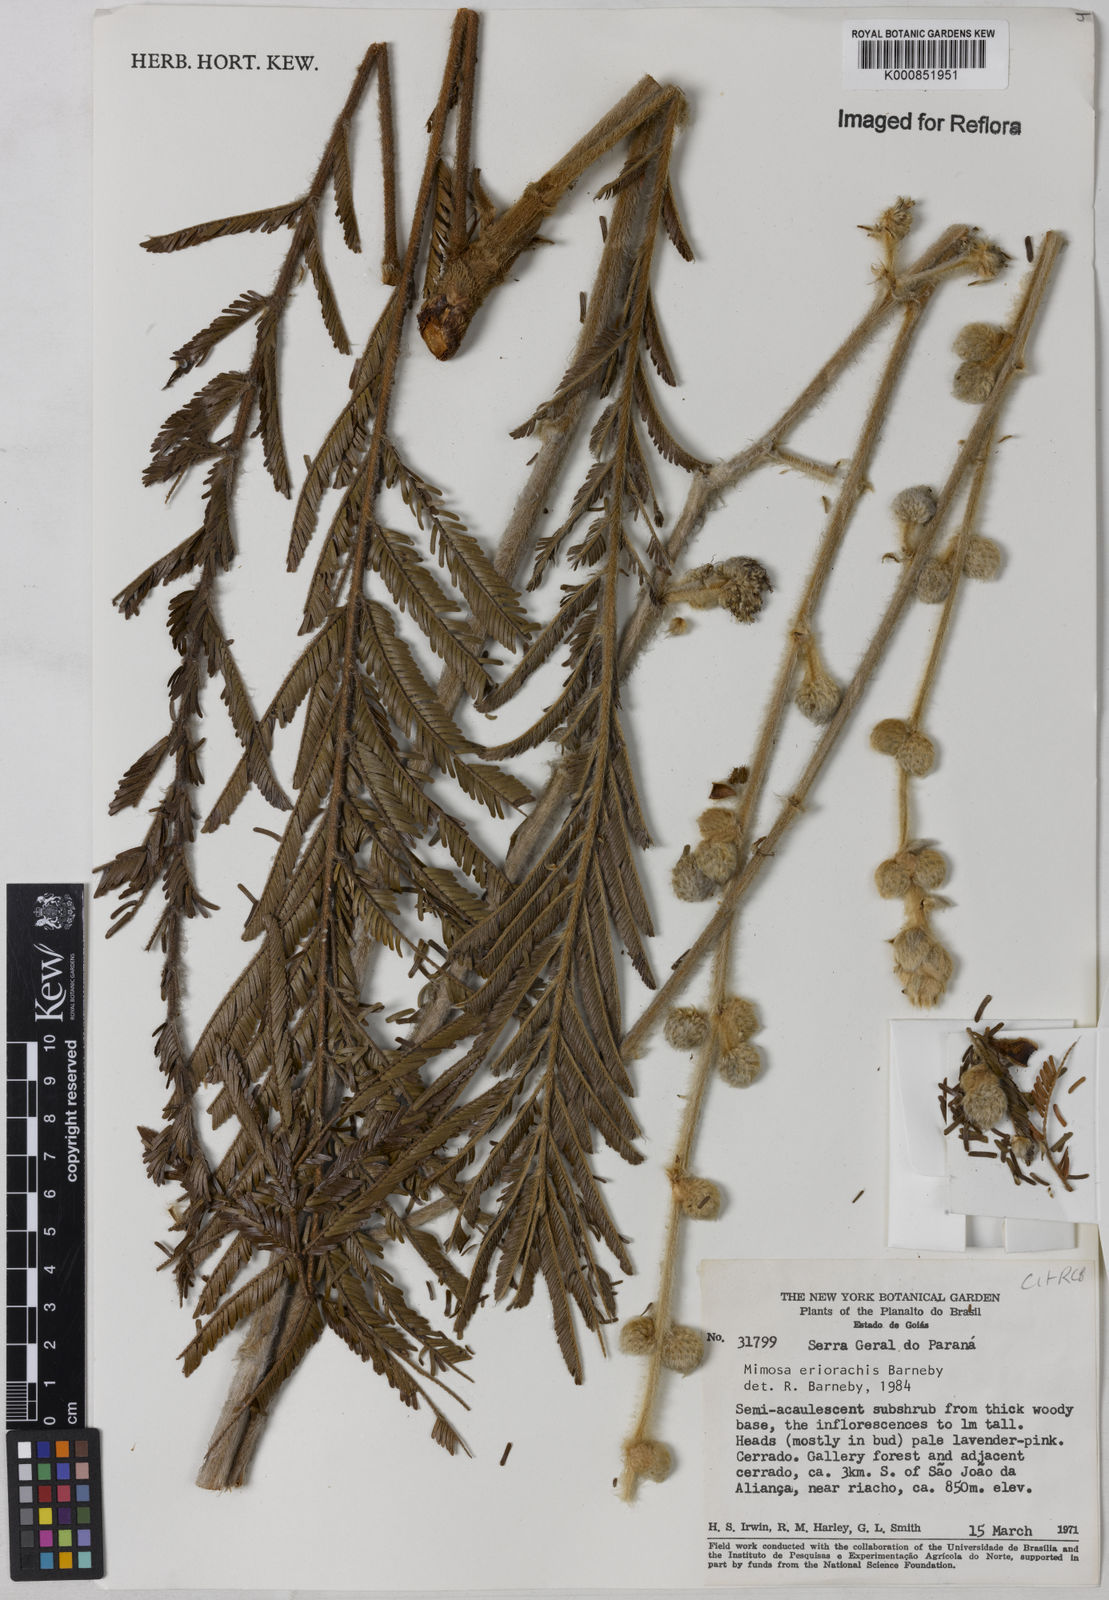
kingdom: Plantae
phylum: Tracheophyta
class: Magnoliopsida
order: Fabales
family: Fabaceae
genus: Mimosa
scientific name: Mimosa eriorrhachis
